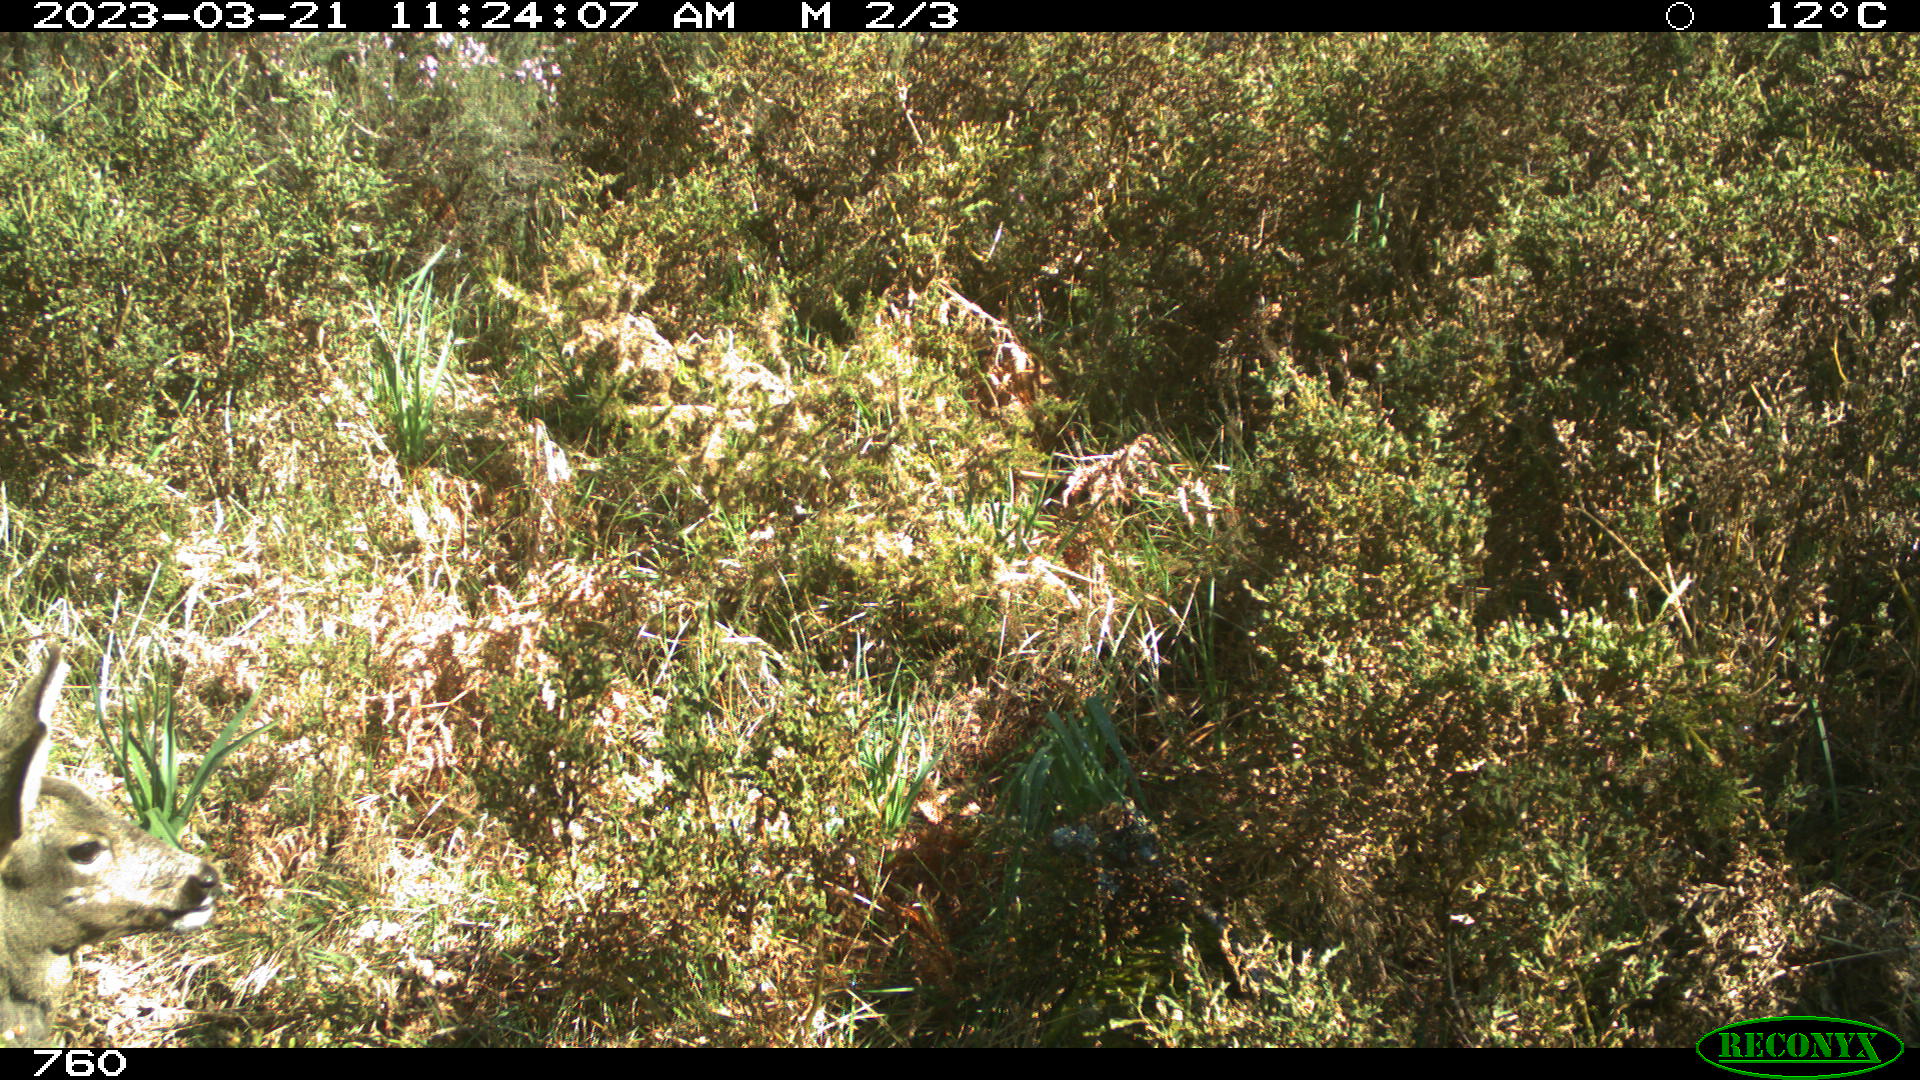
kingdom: Animalia
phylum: Chordata
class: Mammalia
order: Artiodactyla
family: Cervidae
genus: Capreolus
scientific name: Capreolus capreolus
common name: Western roe deer
